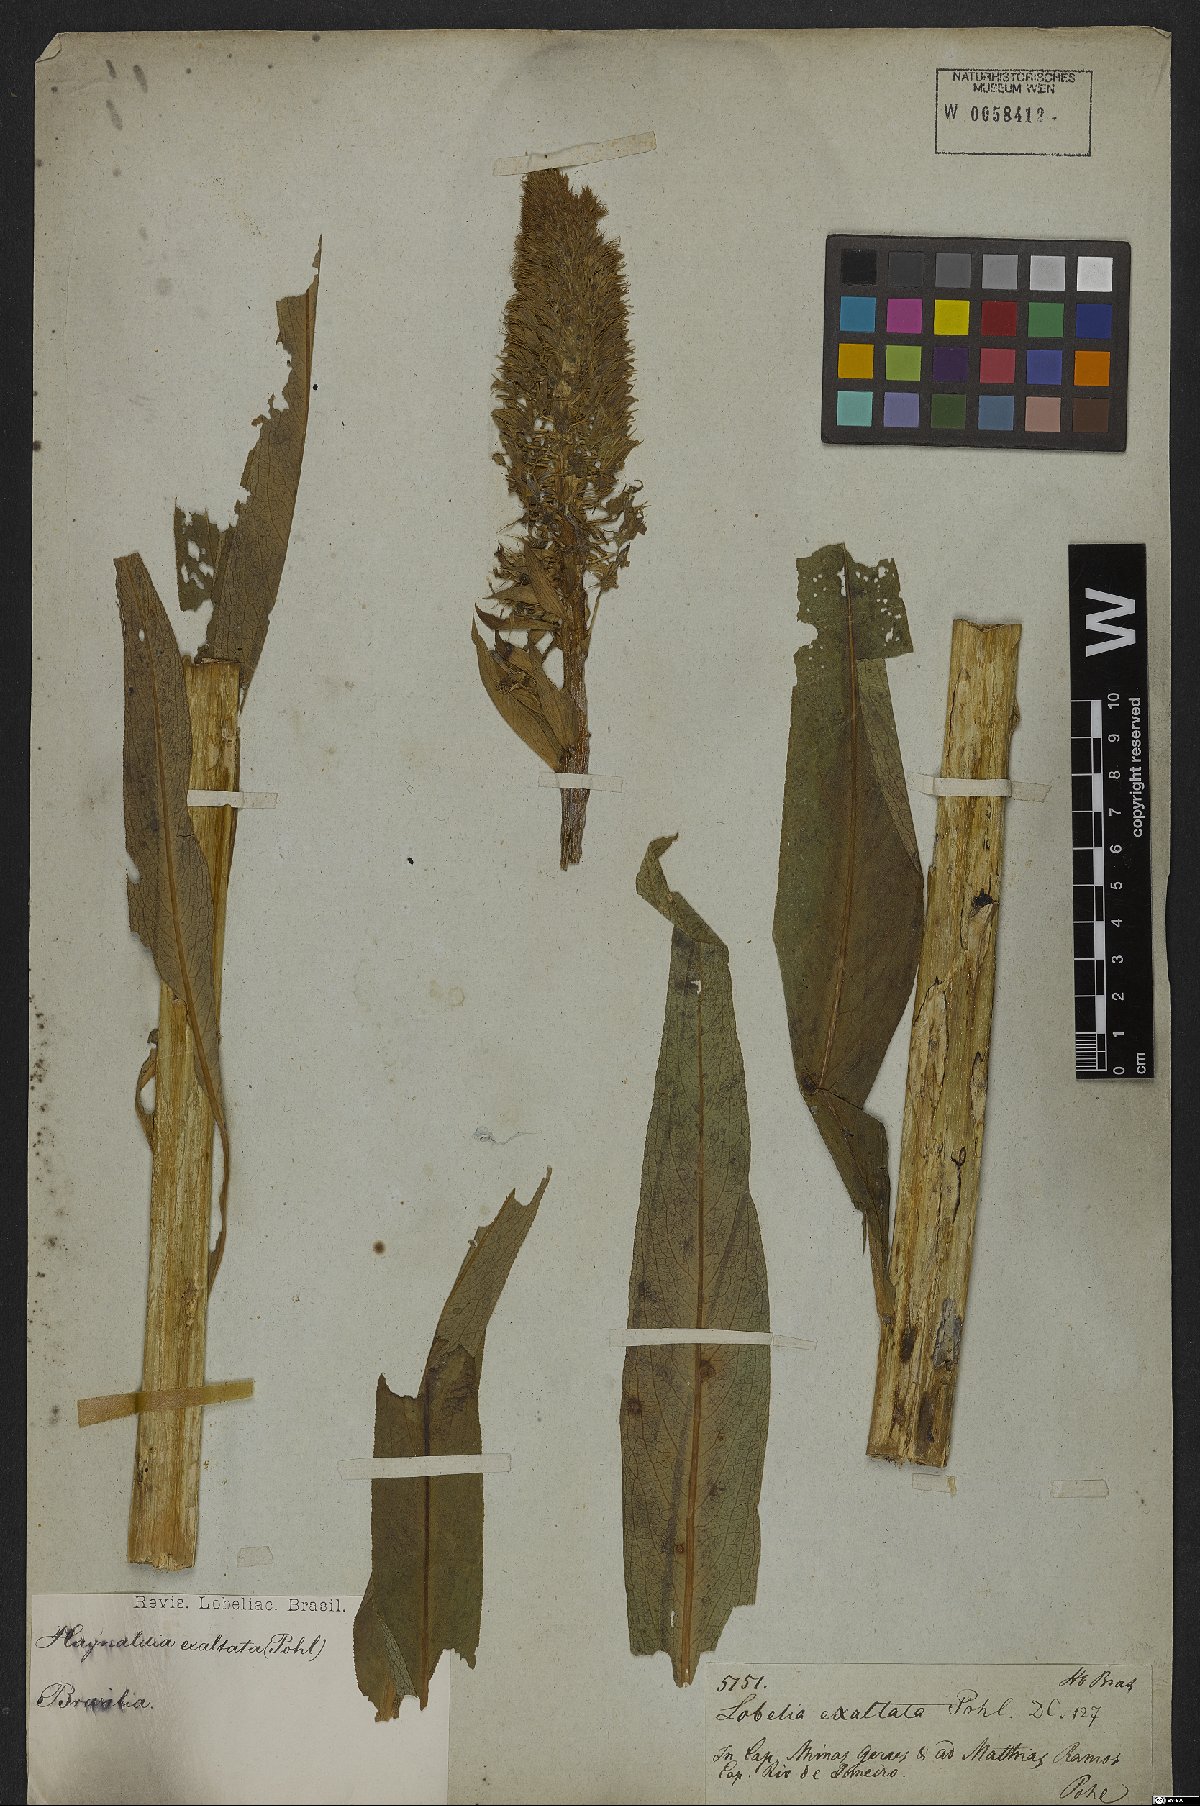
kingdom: Plantae
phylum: Tracheophyta
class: Magnoliopsida
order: Asterales
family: Campanulaceae
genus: Lobelia
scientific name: Lobelia exaltata
